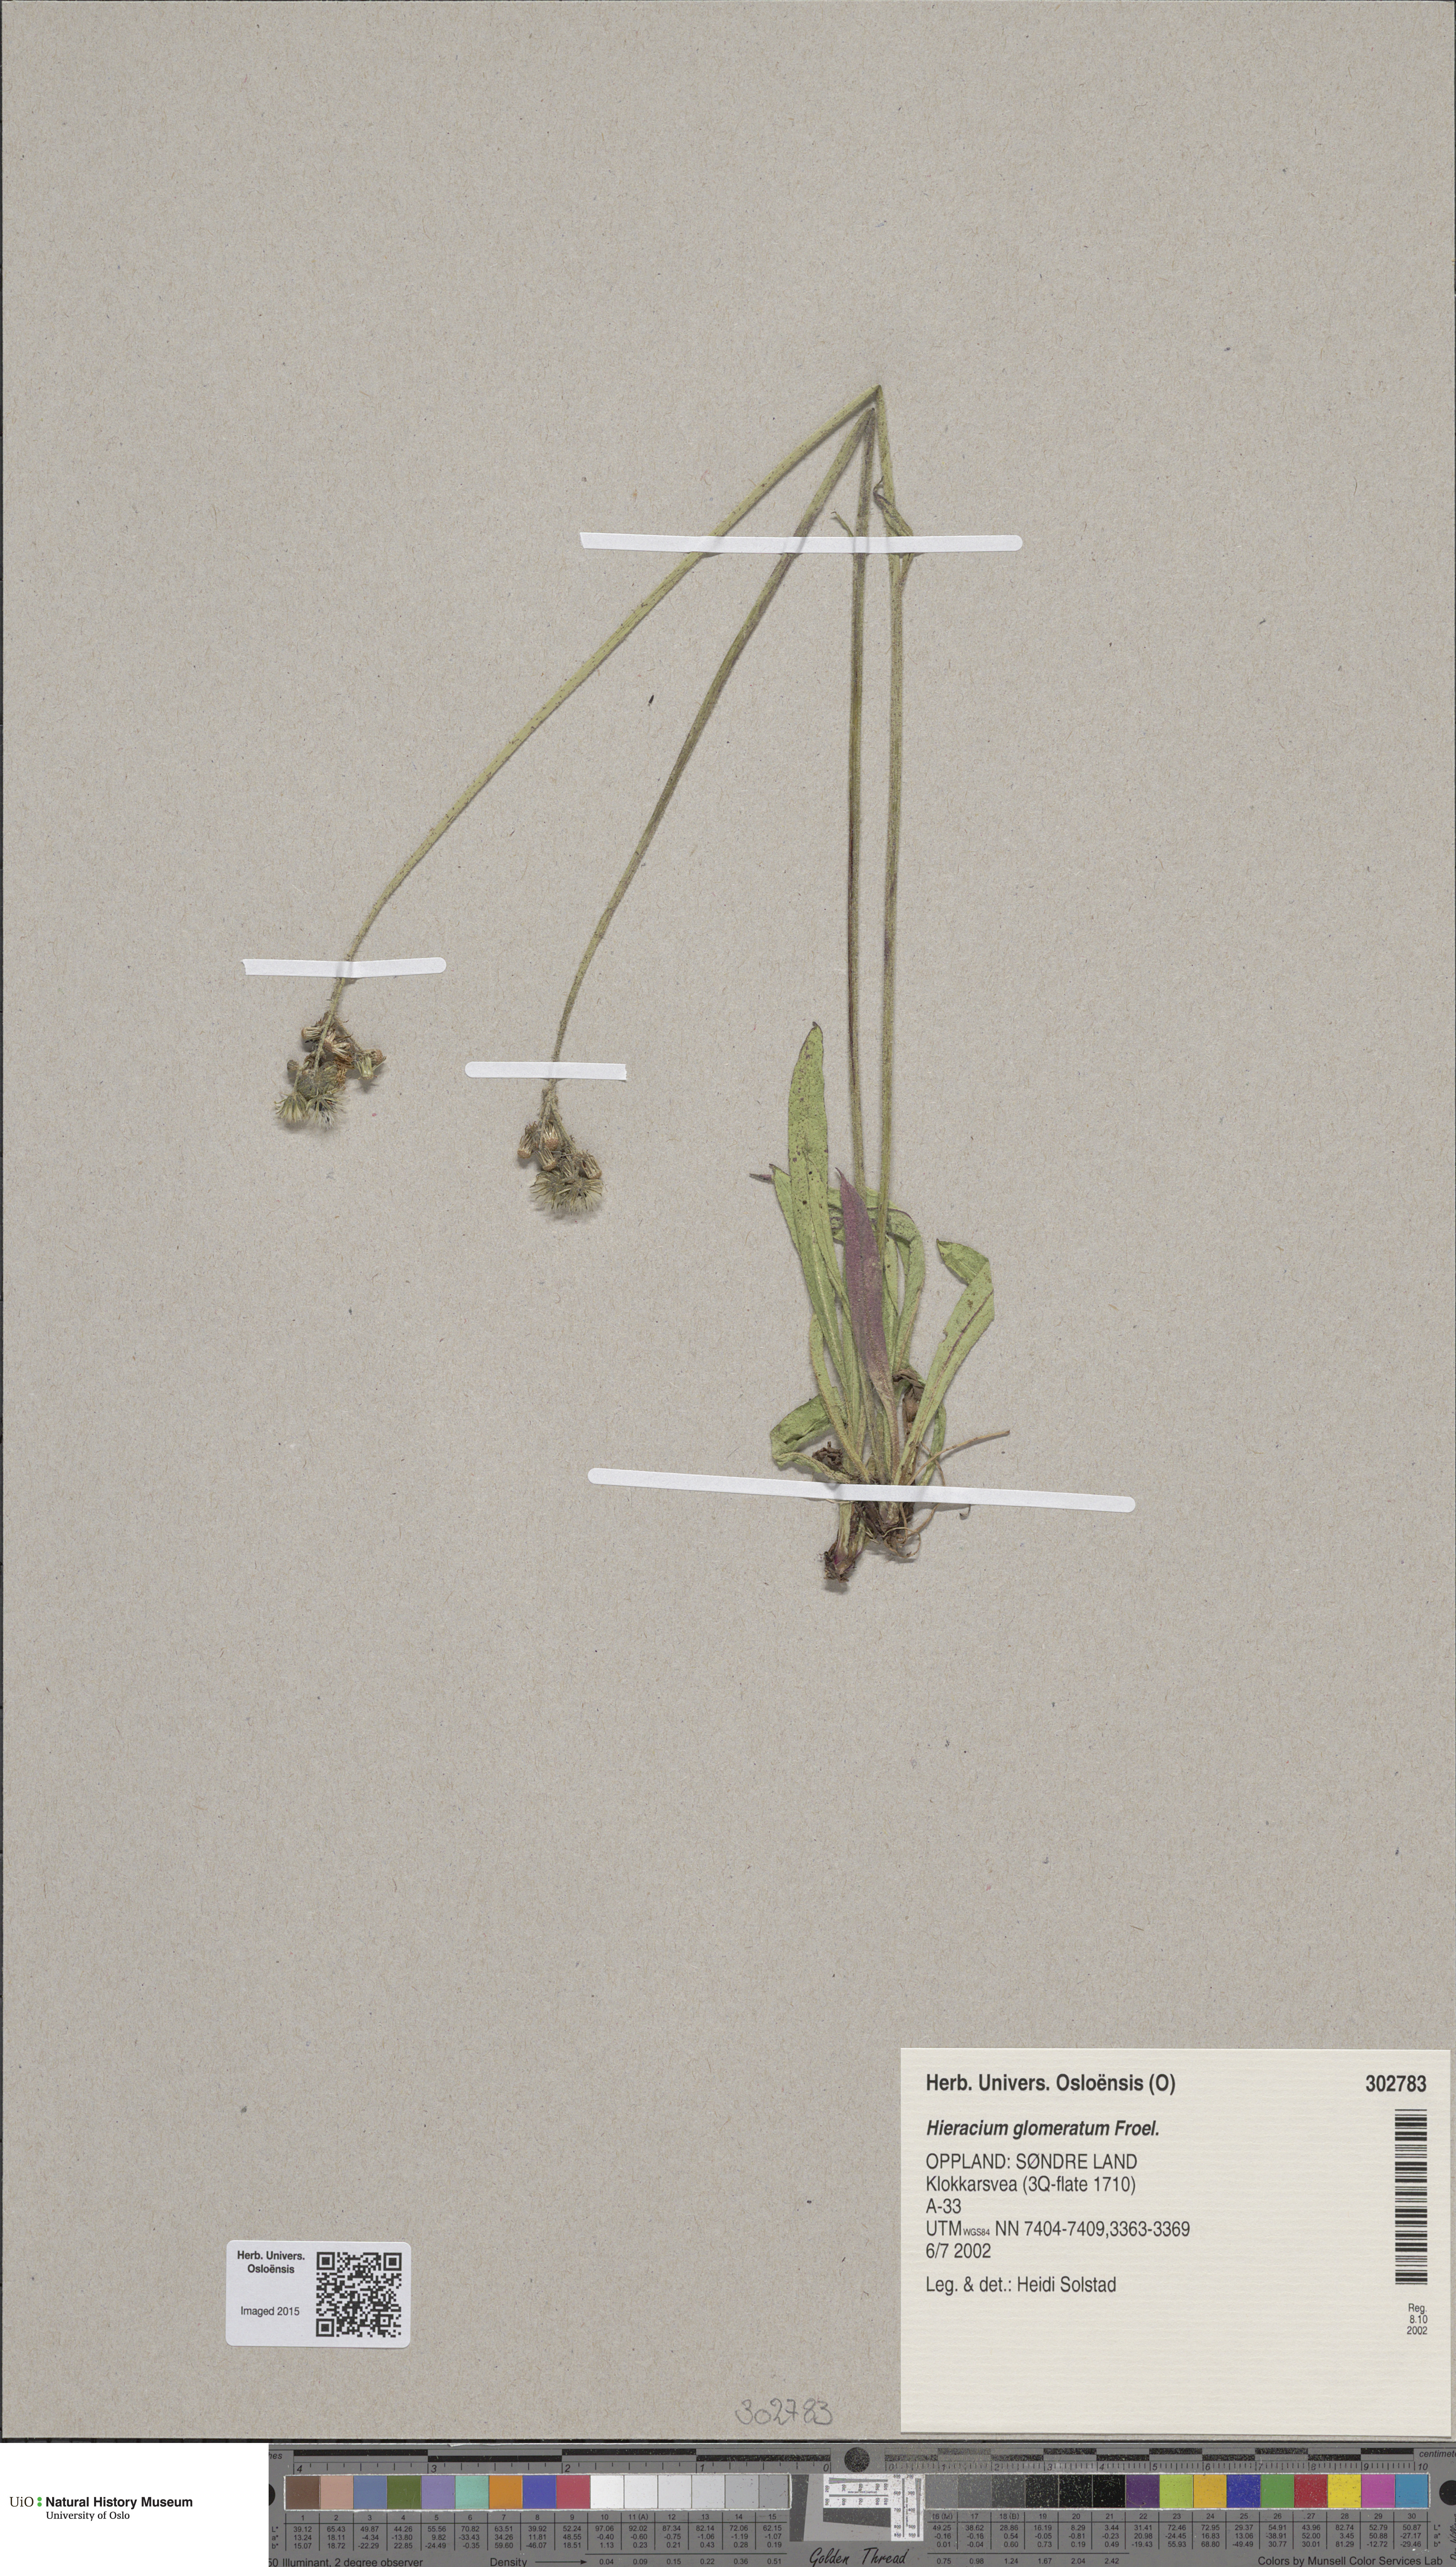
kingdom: Plantae
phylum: Tracheophyta
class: Magnoliopsida
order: Asterales
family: Asteraceae
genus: Pilosella
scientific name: Pilosella glomerata
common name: Queen devil hawkweed
